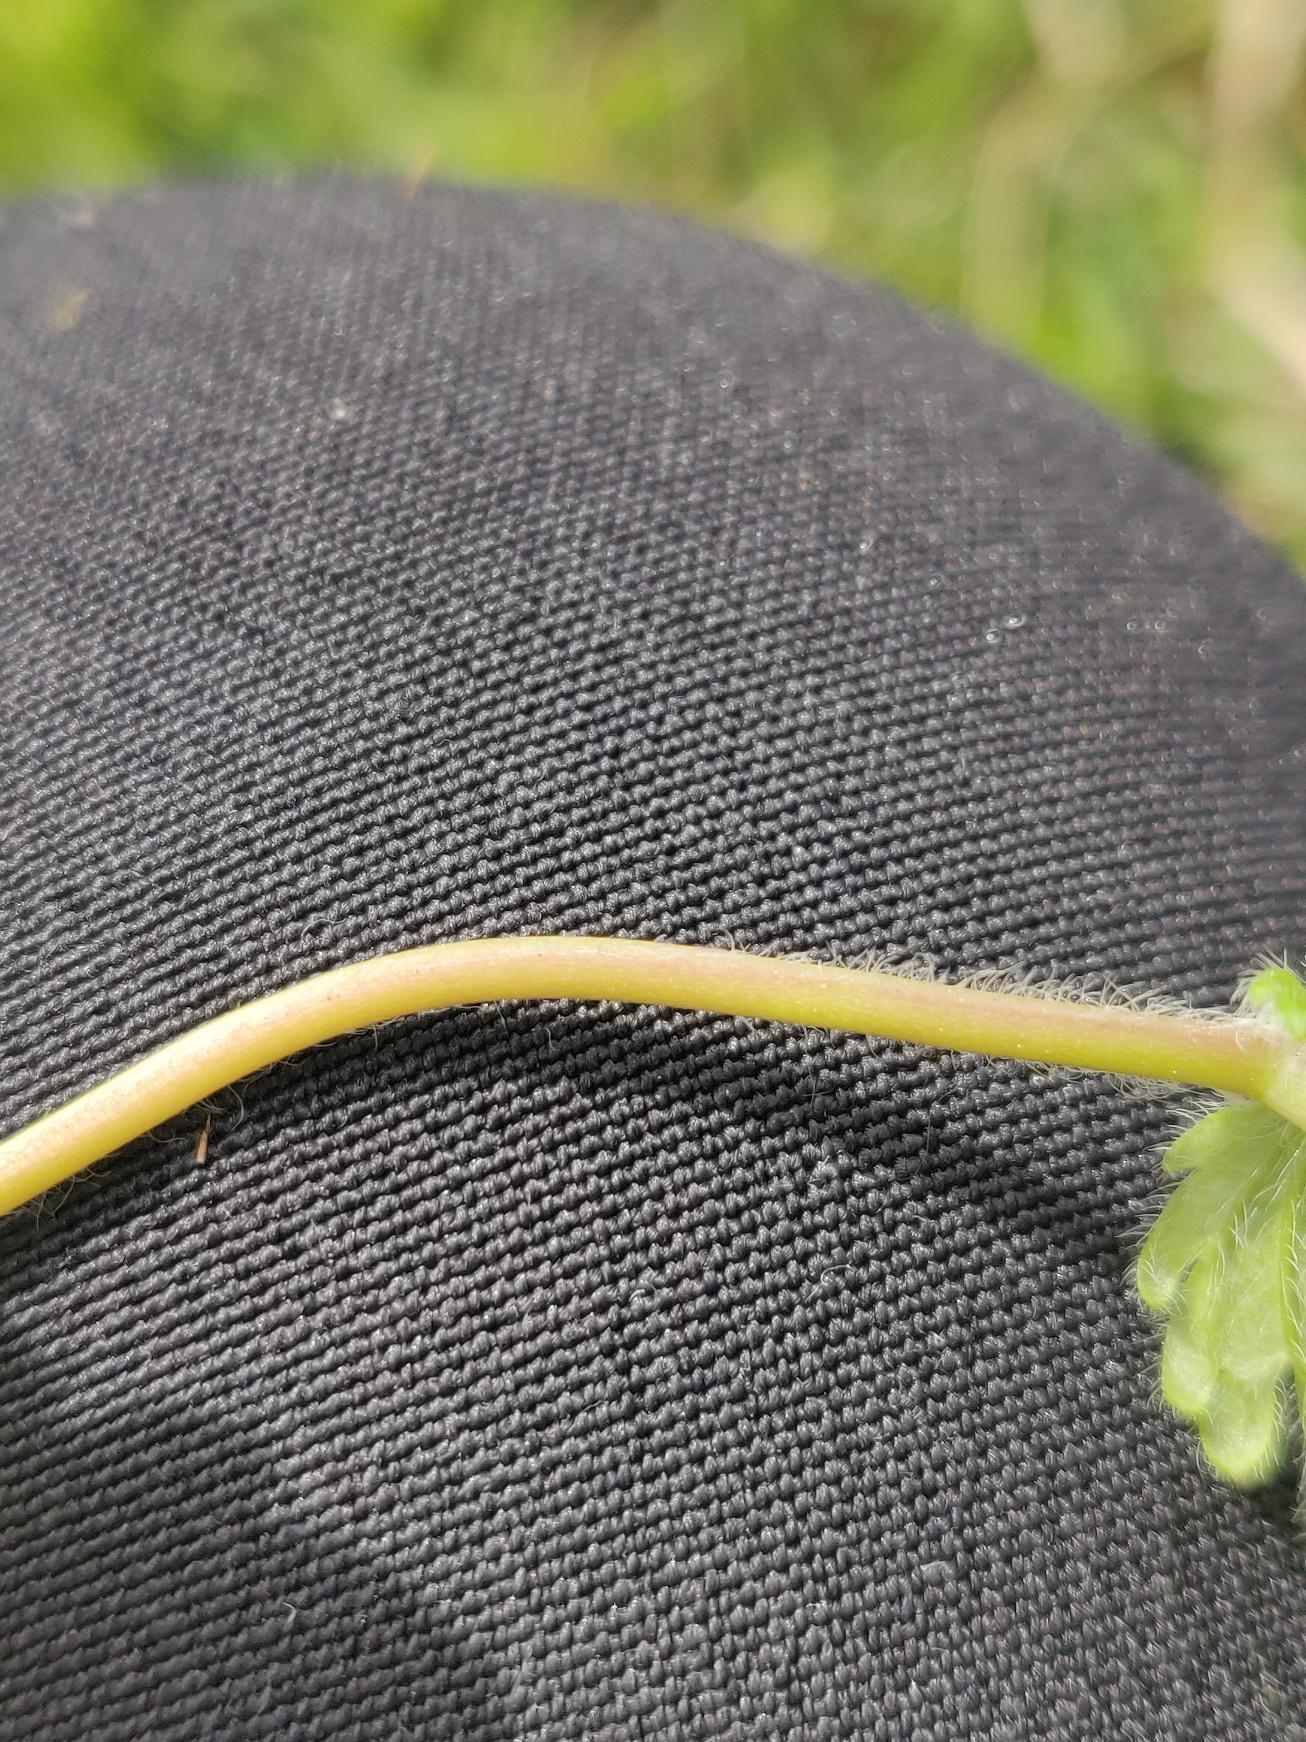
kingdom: Plantae
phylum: Tracheophyta
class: Magnoliopsida
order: Lamiales
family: Plantaginaceae
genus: Veronica
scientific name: Veronica chamaedrys
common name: Tveskægget ærenpris
